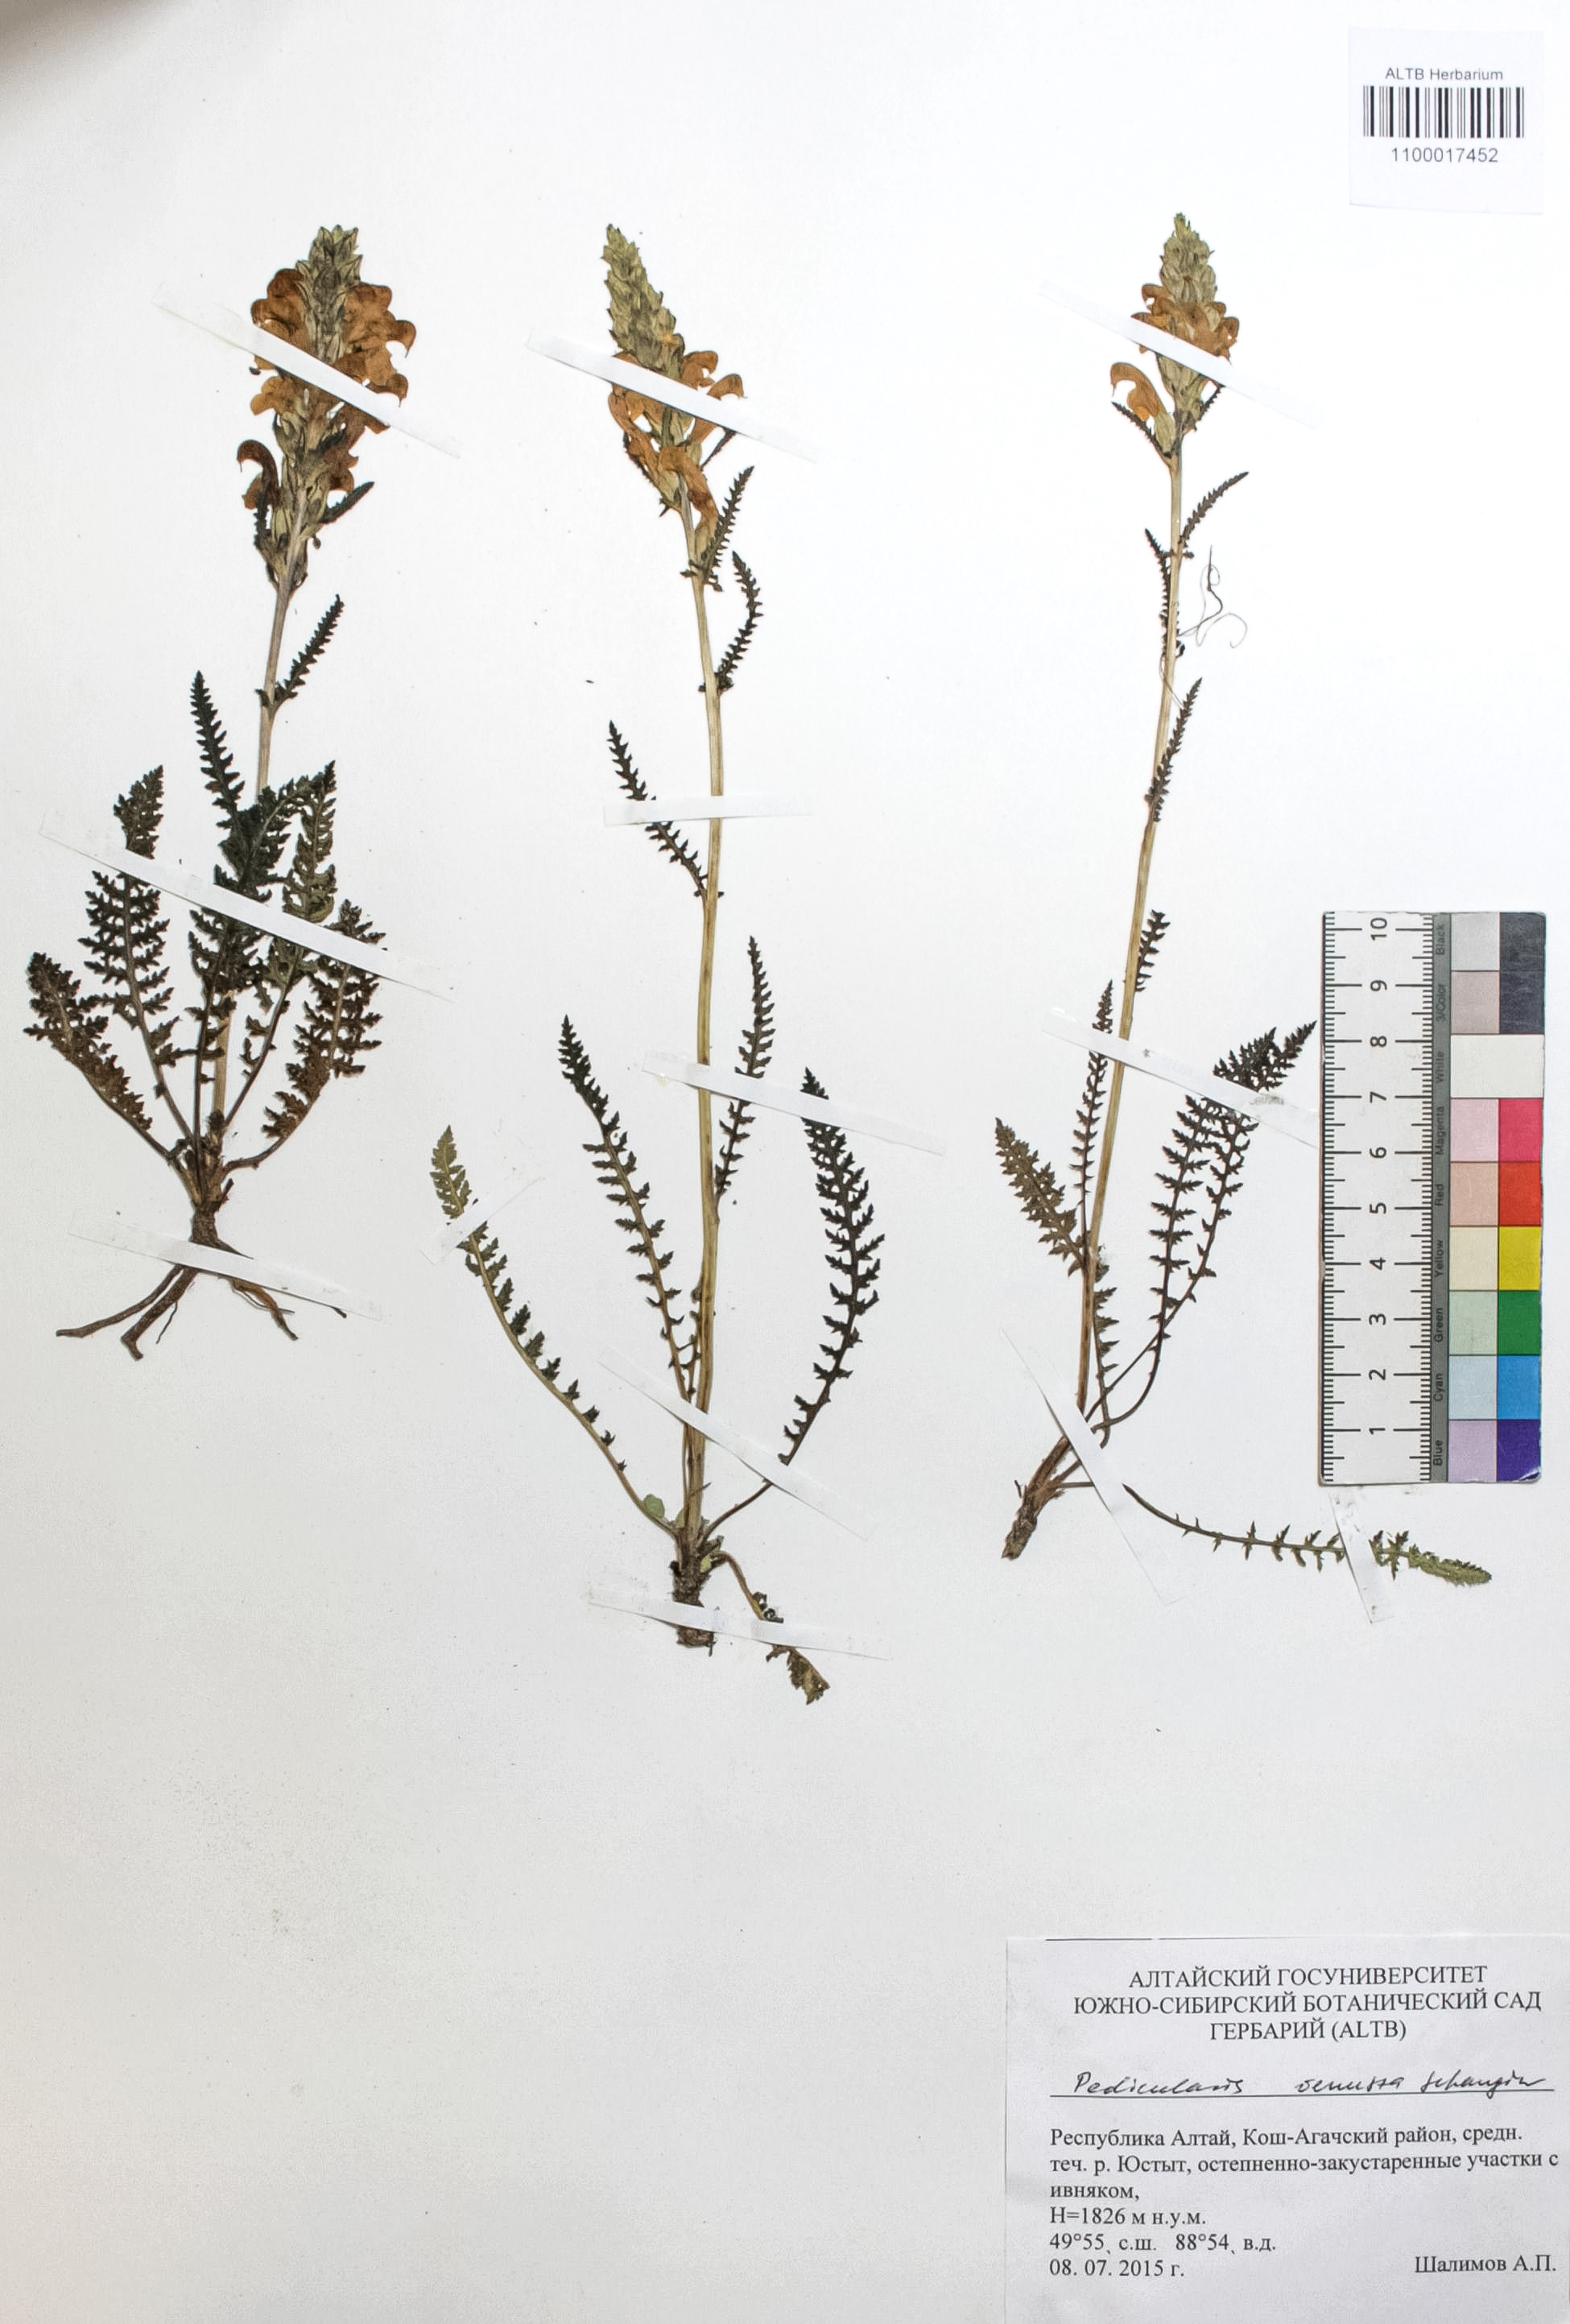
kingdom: Plantae
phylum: Tracheophyta
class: Magnoliopsida
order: Lamiales
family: Orobanchaceae
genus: Pedicularis
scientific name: Pedicularis venusta
